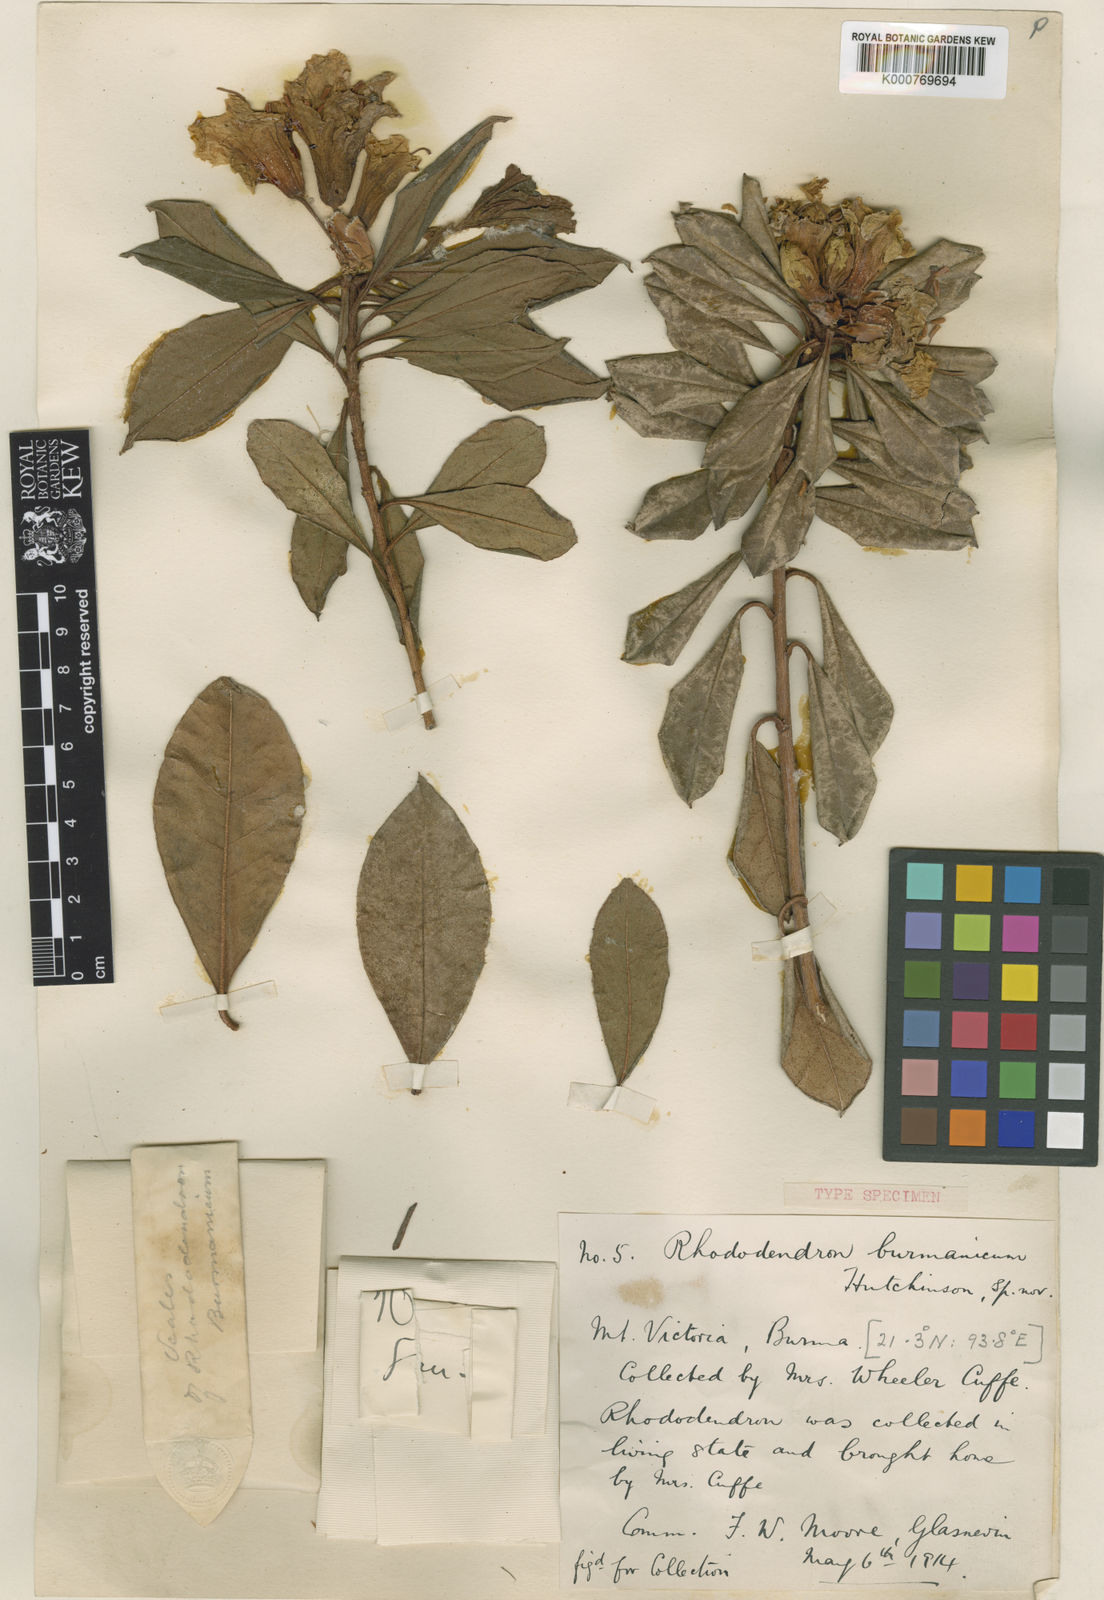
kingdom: Plantae
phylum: Tracheophyta
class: Magnoliopsida
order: Ericales
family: Ericaceae
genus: Rhododendron
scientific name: Rhododendron burmanicum
